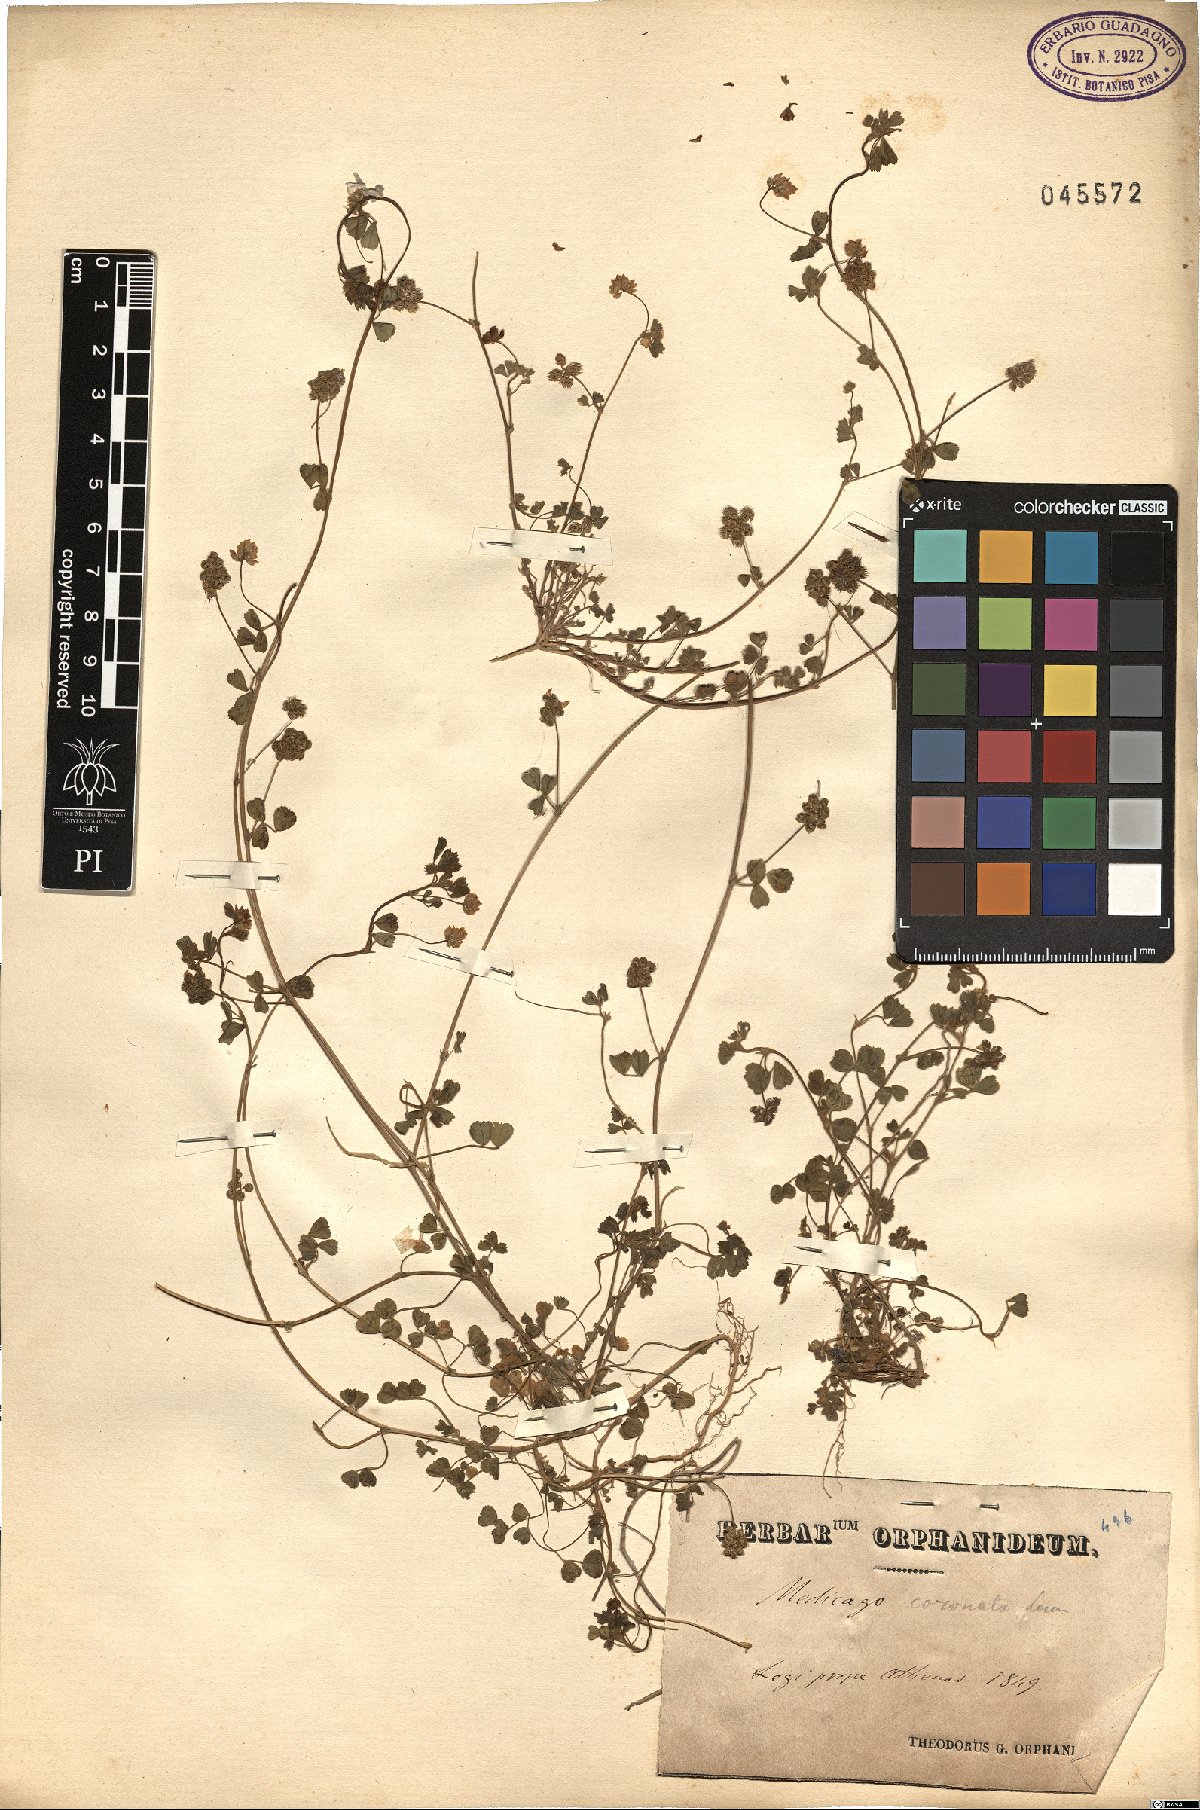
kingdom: Plantae
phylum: Tracheophyta
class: Magnoliopsida
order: Fabales
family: Fabaceae
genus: Medicago
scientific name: Medicago coronata
